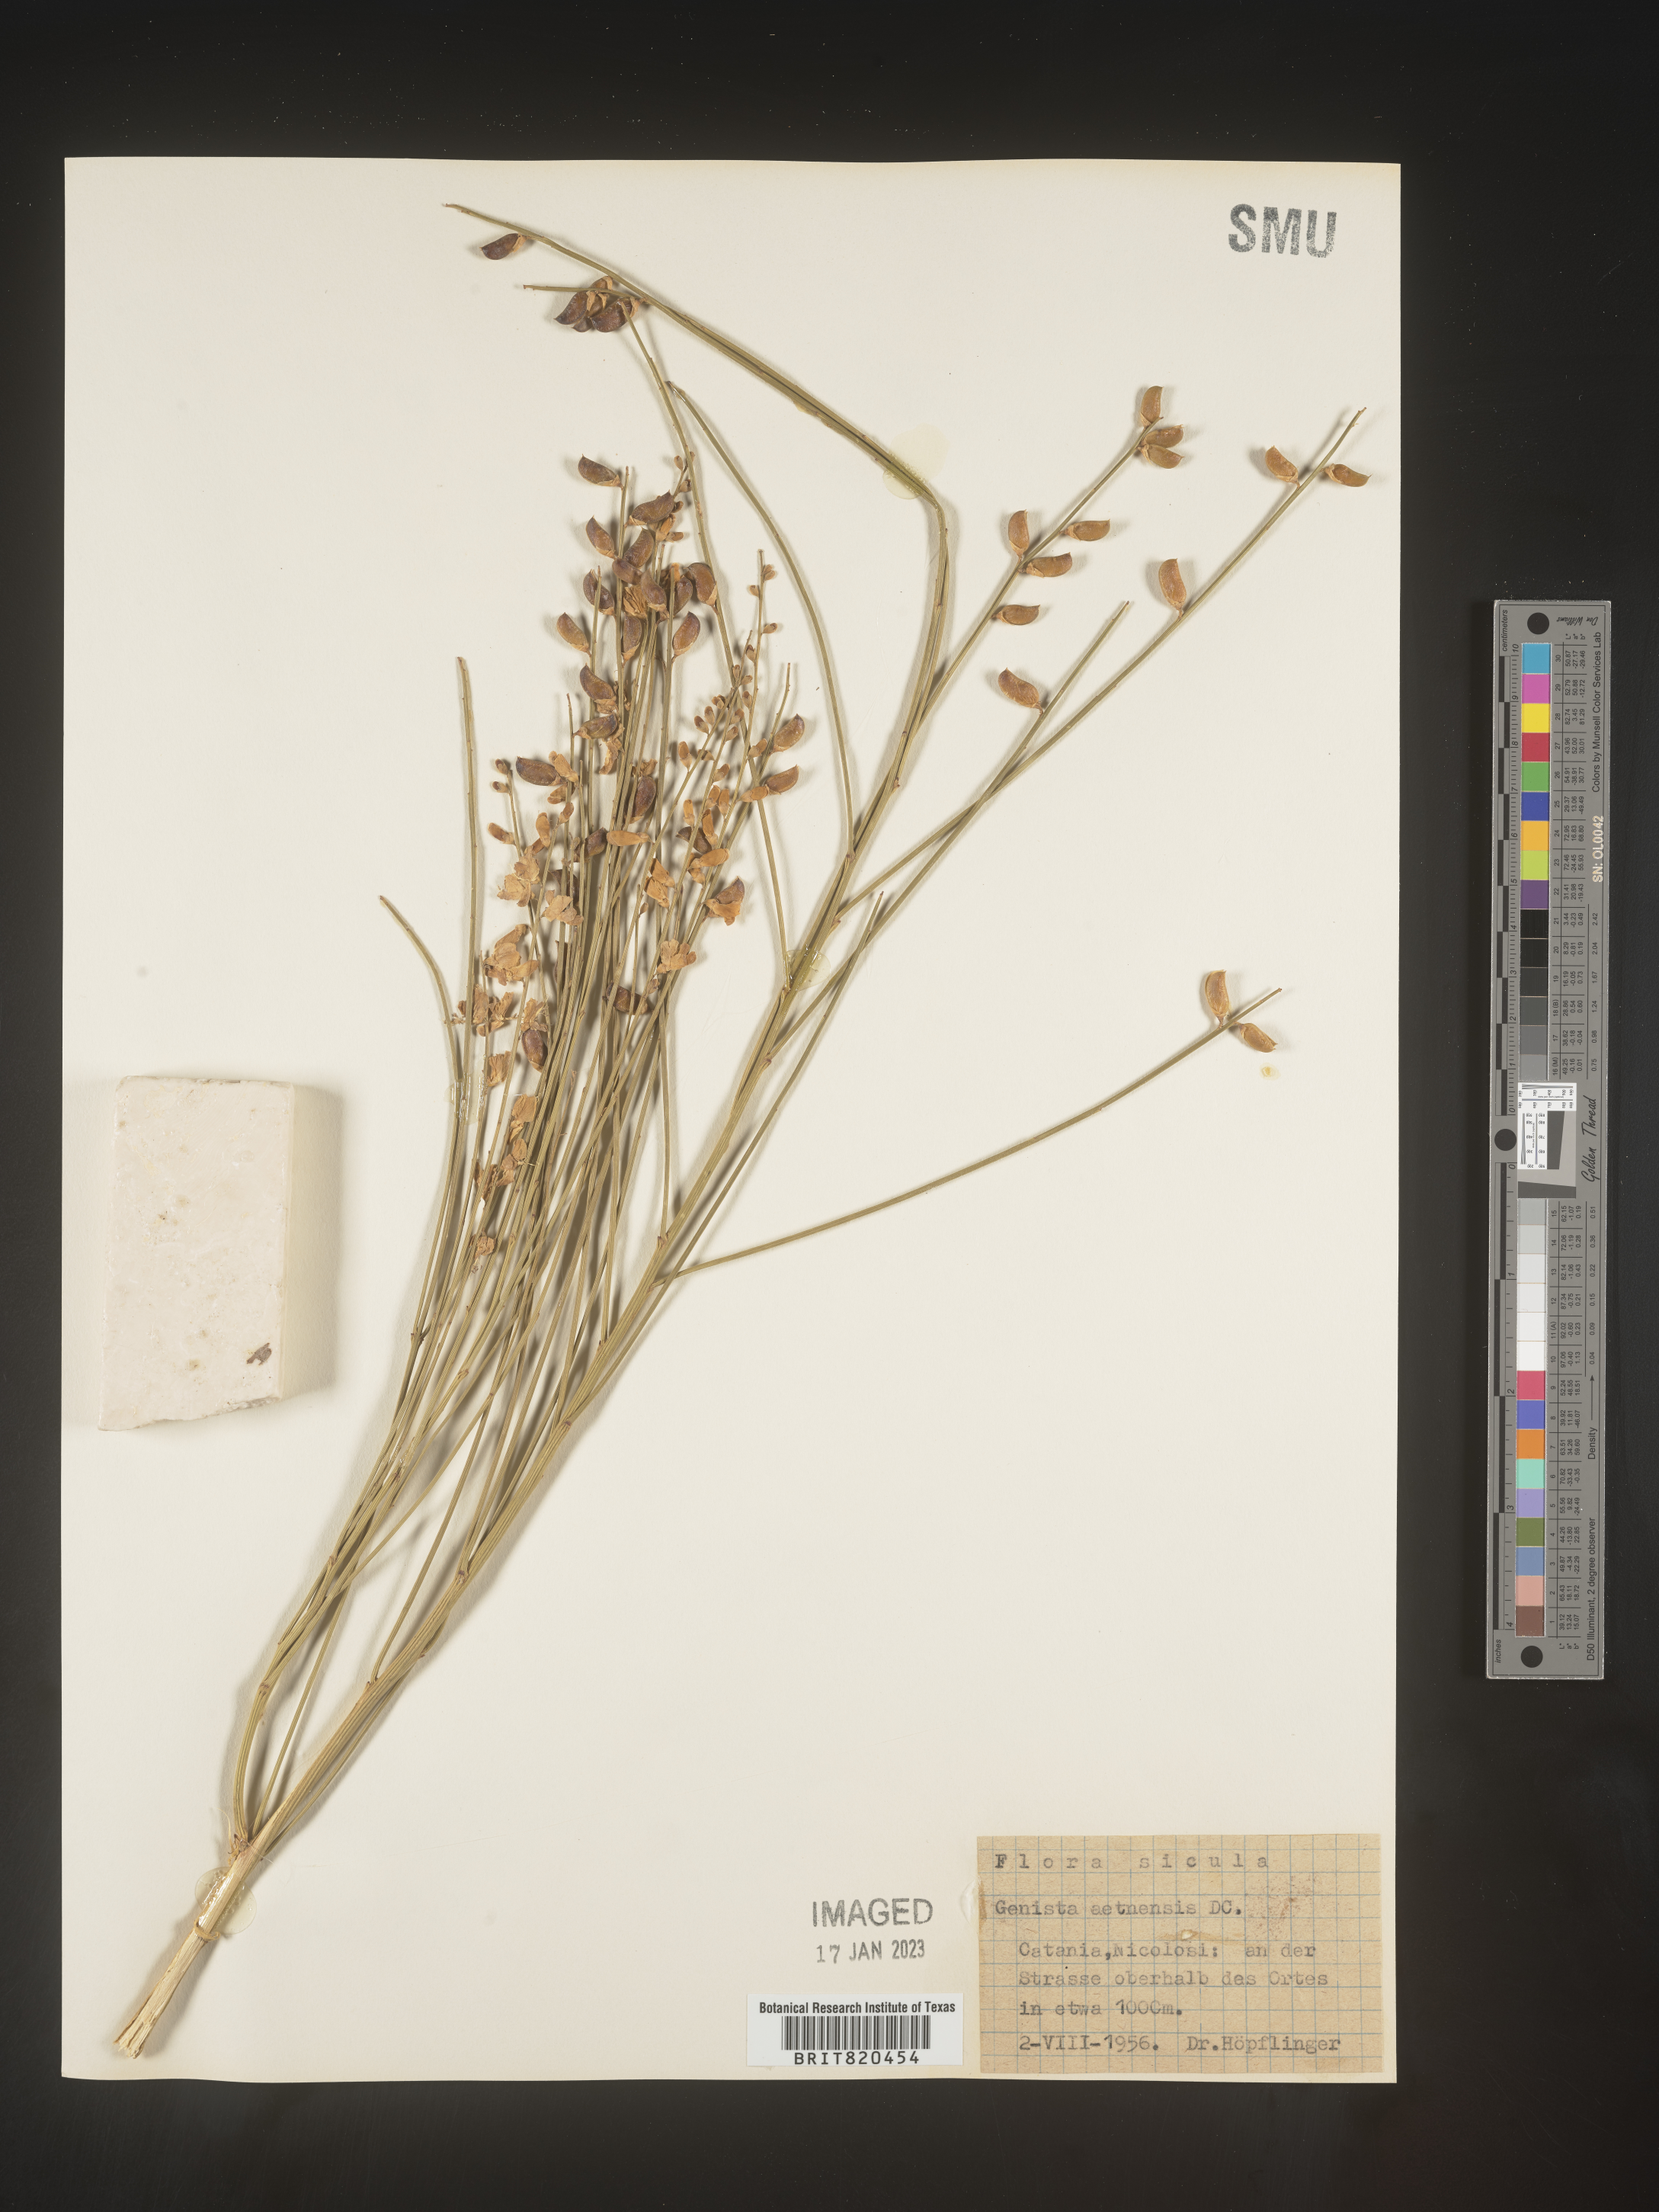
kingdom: Plantae
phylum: Tracheophyta
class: Magnoliopsida
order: Fabales
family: Fabaceae
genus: Genista
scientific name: Genista
